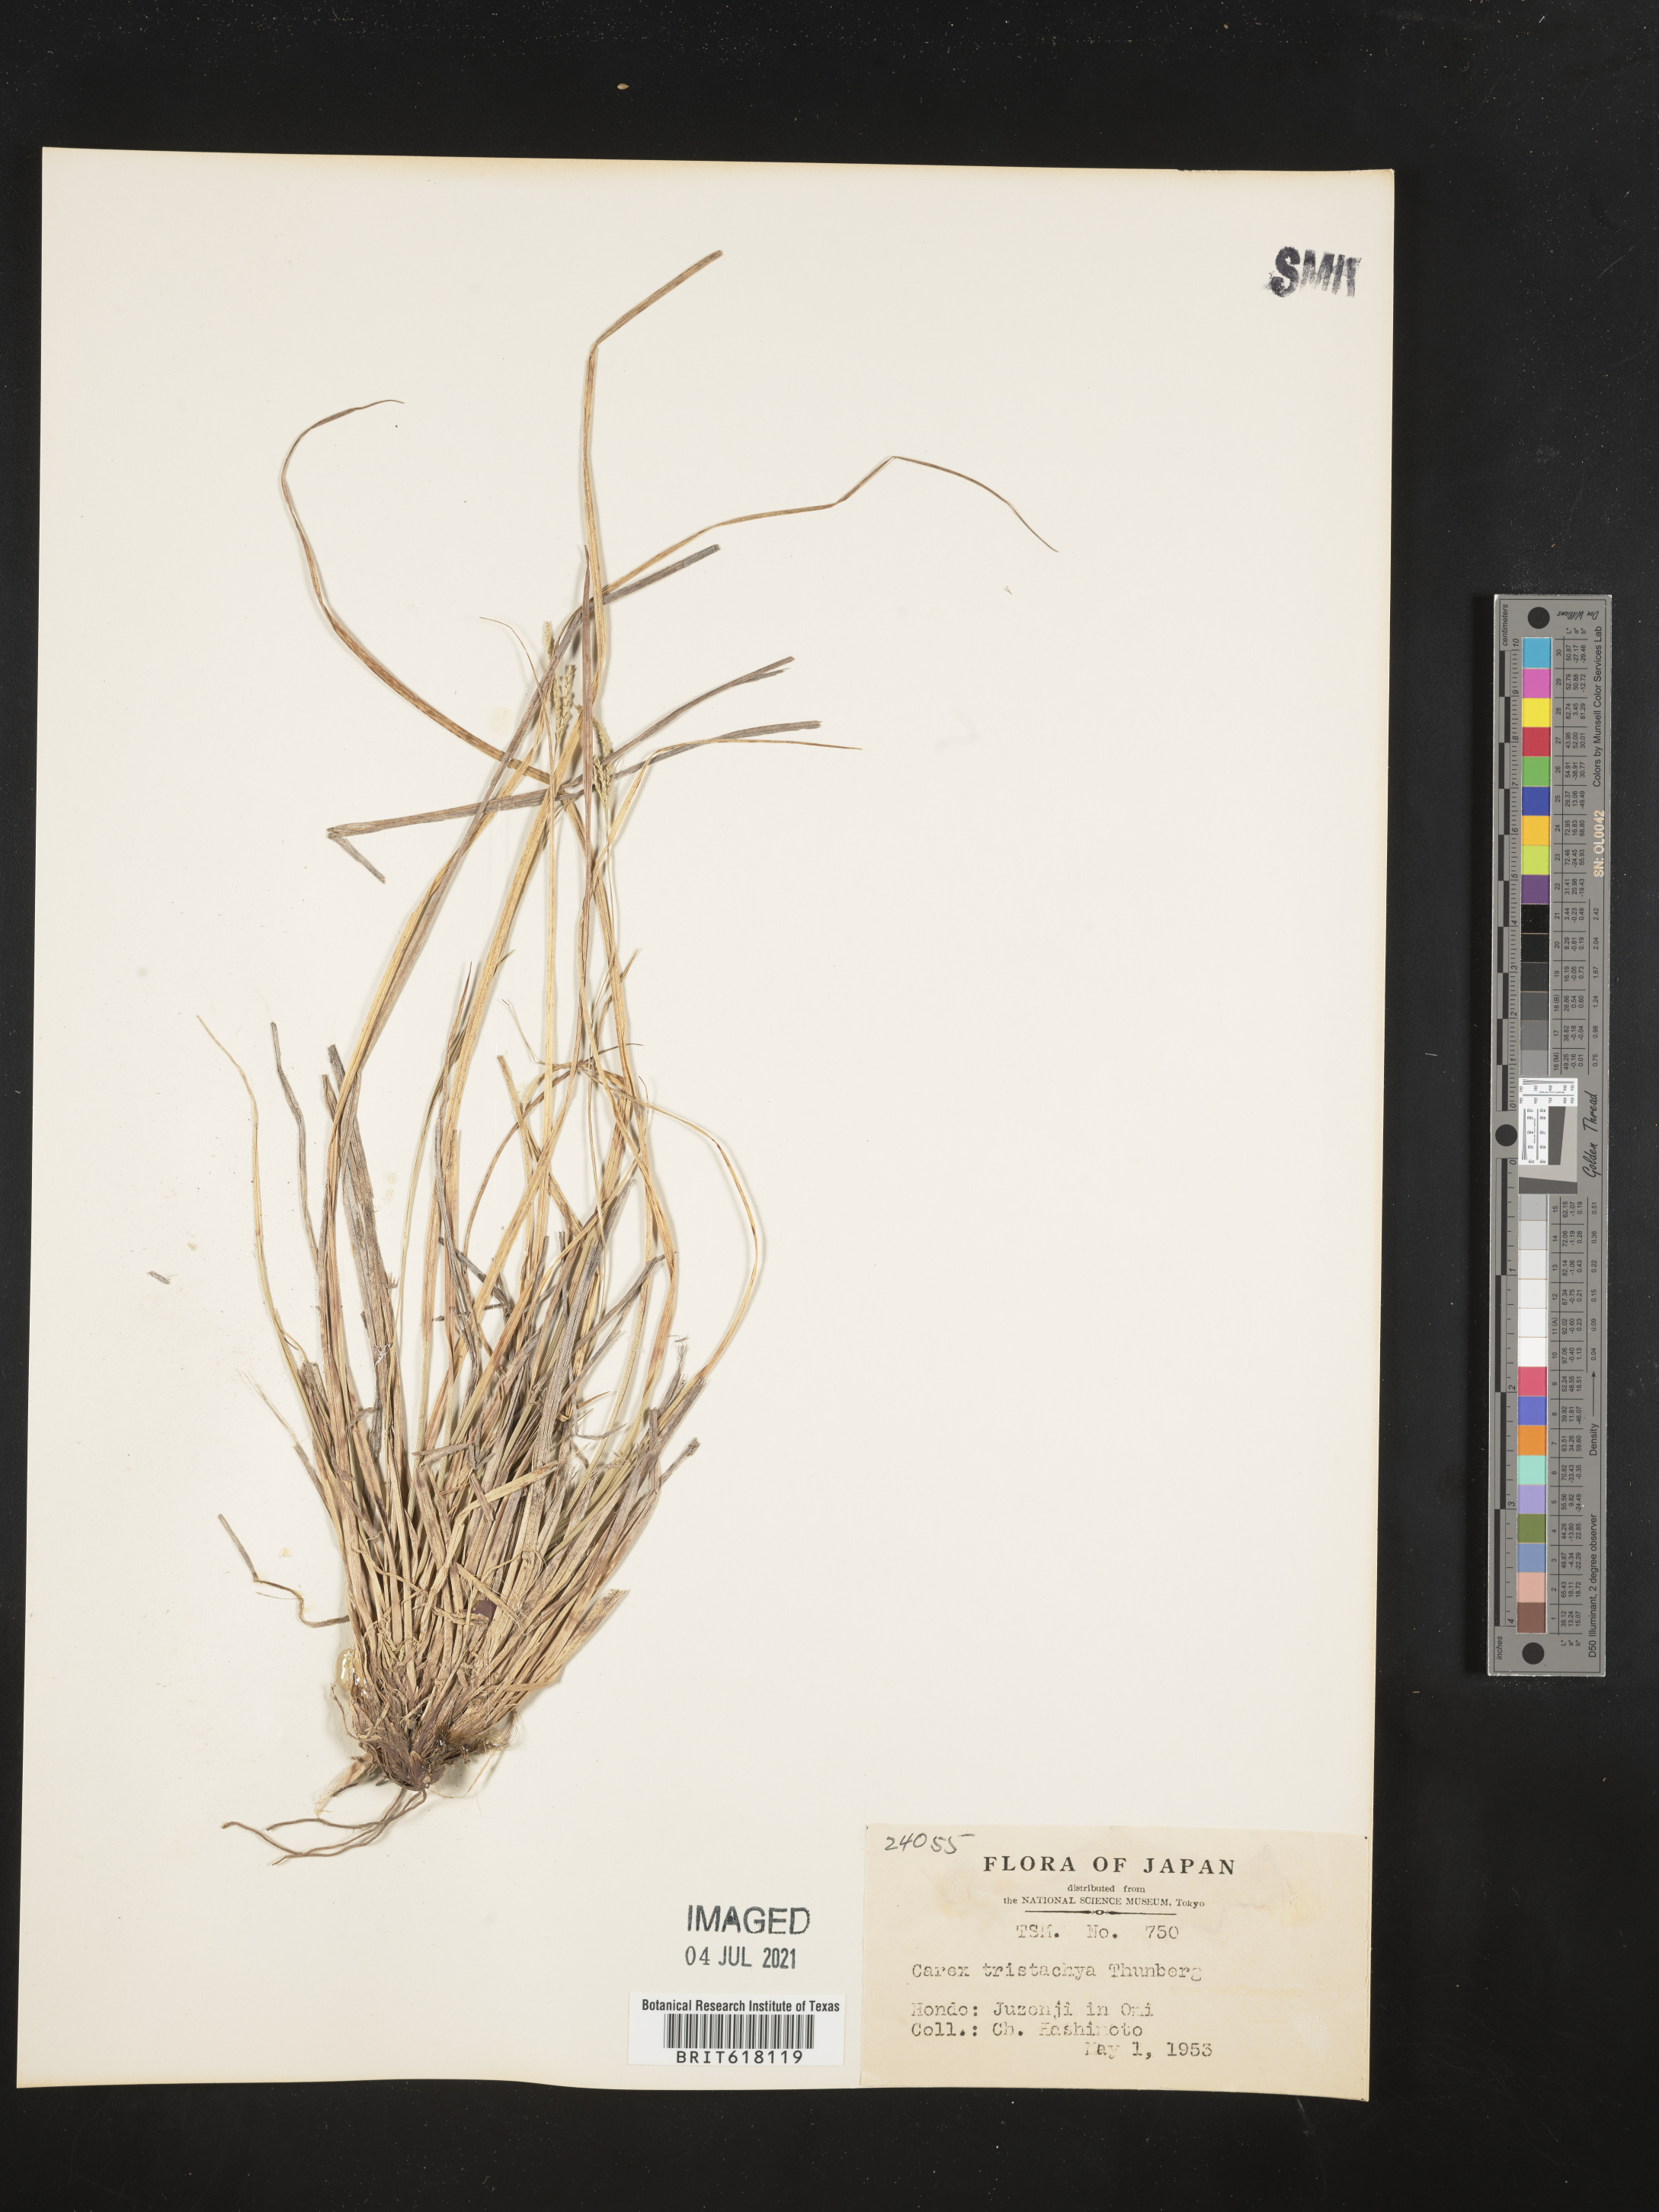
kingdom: Plantae
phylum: Tracheophyta
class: Liliopsida
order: Poales
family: Cyperaceae
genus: Carex
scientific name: Carex tristachya
